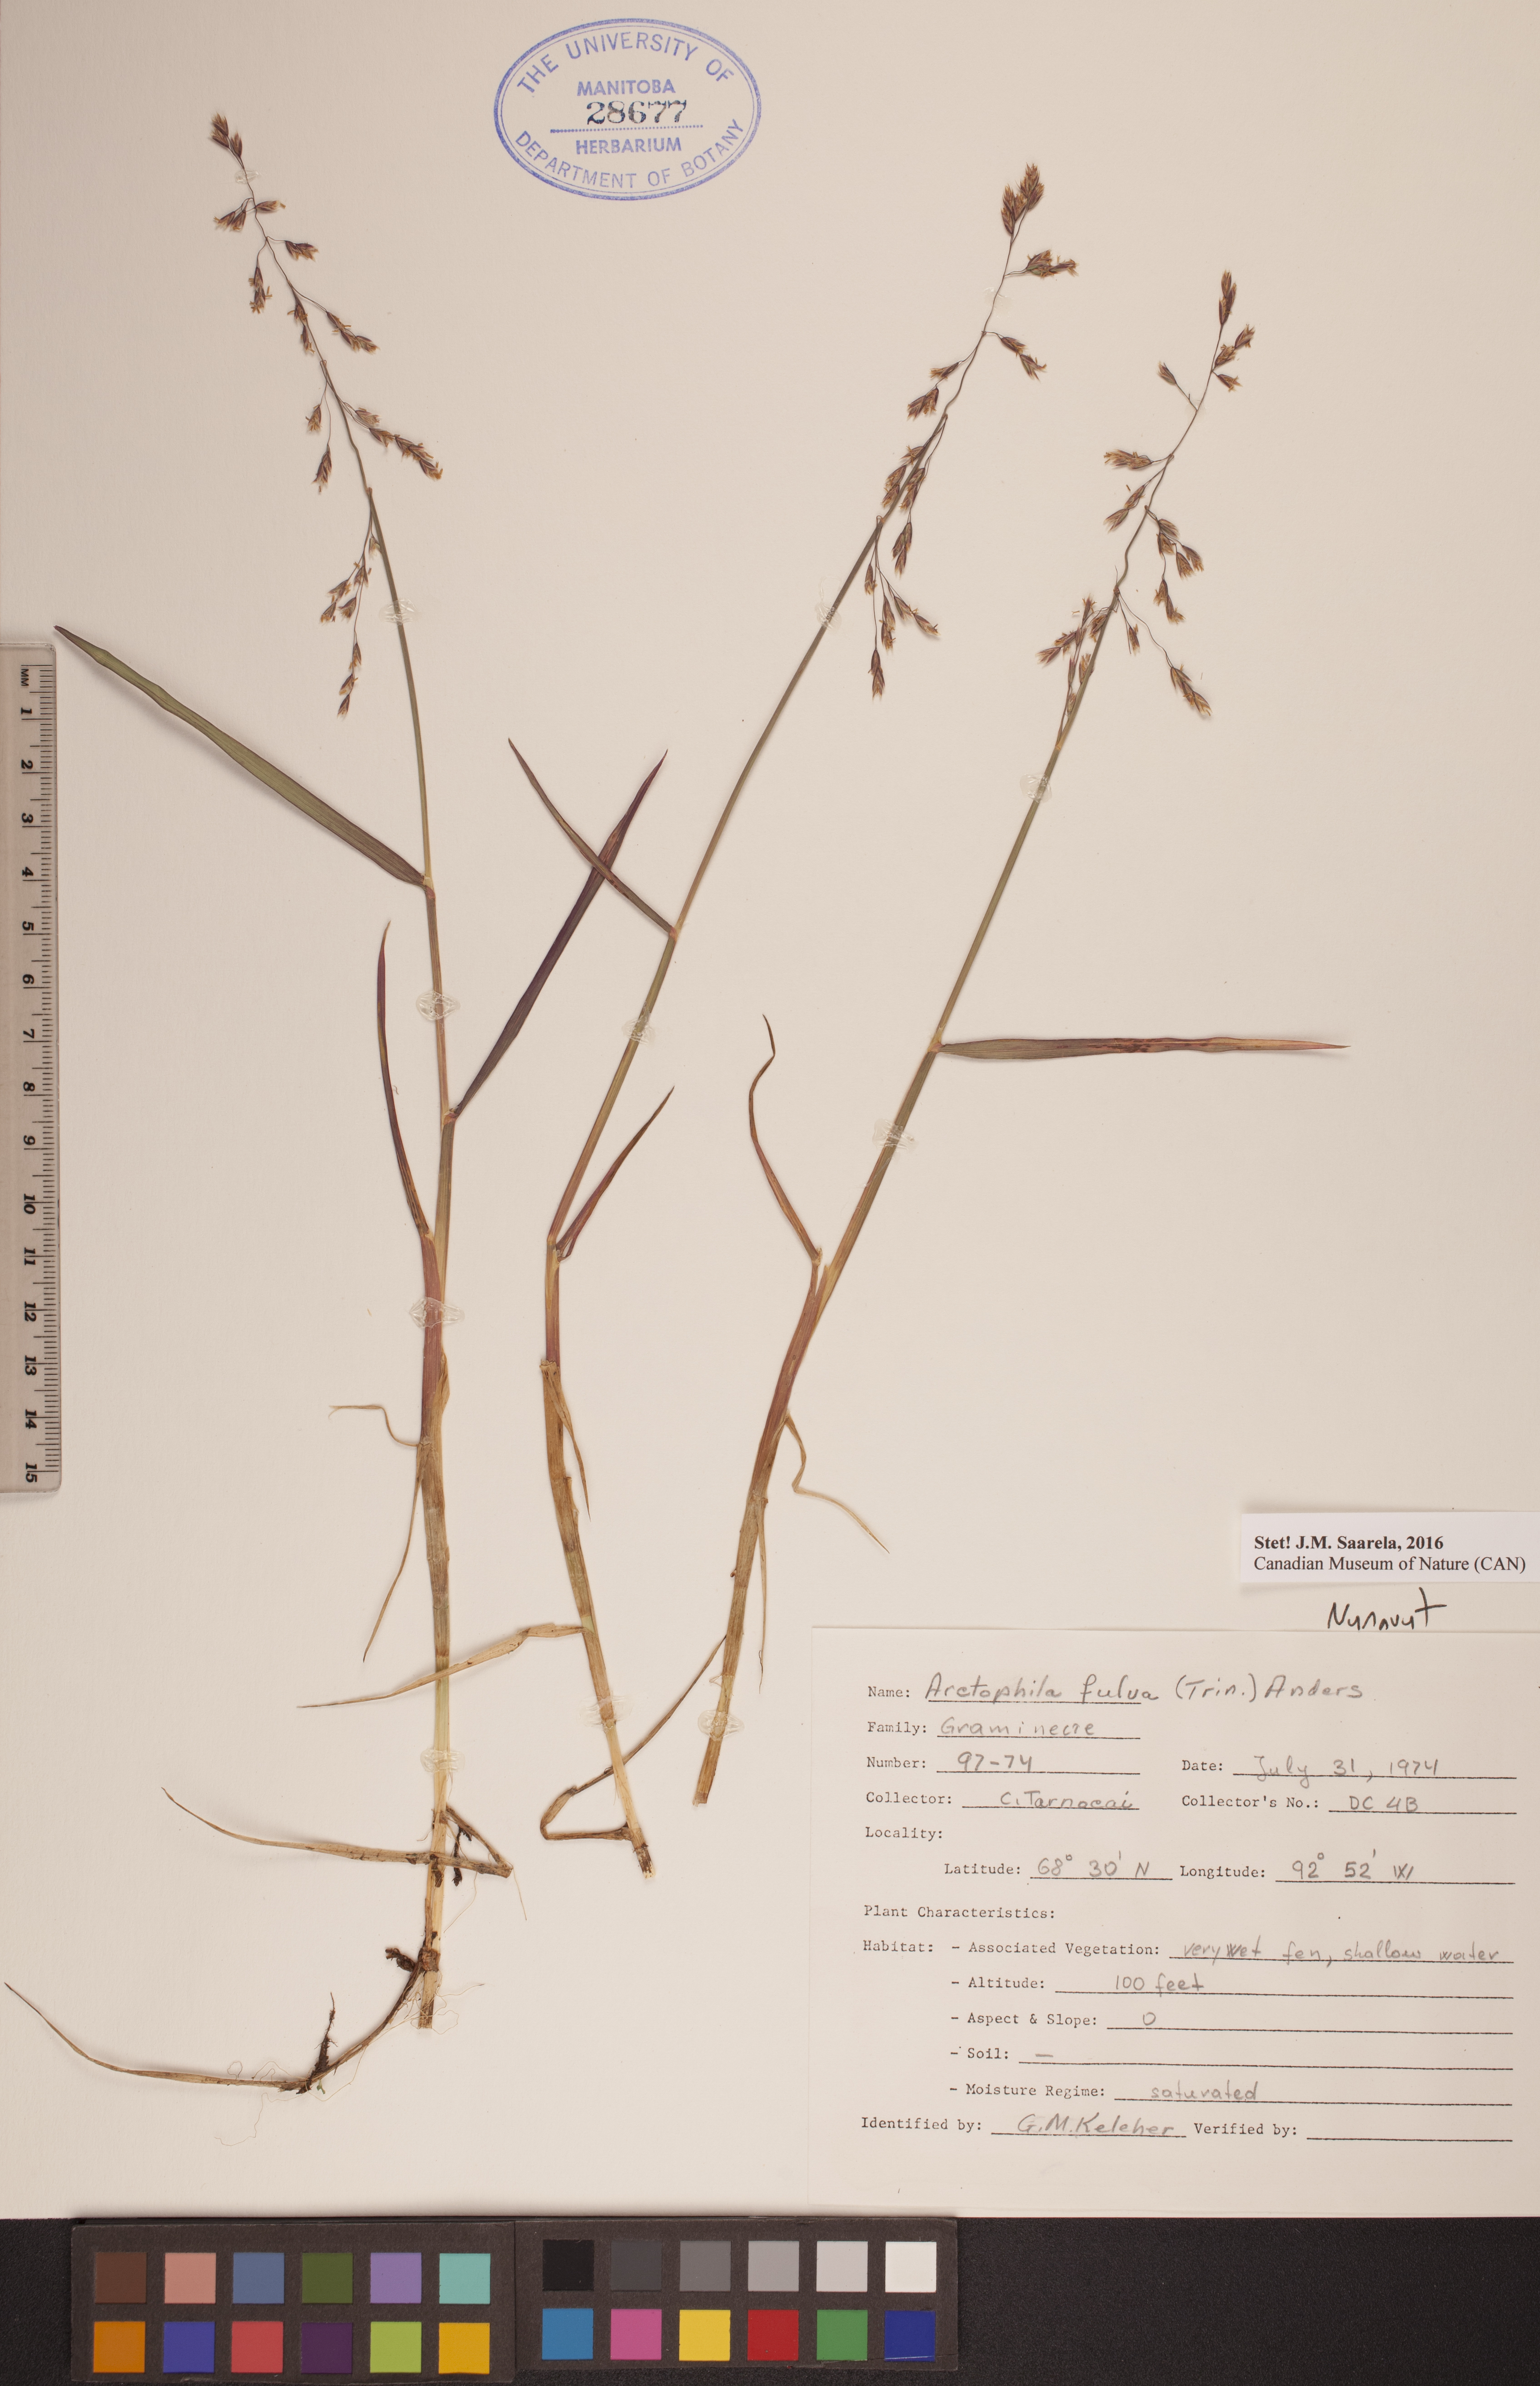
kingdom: Plantae
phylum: Tracheophyta
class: Liliopsida
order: Poales
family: Poaceae
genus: Dupontia
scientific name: Dupontia fulva
